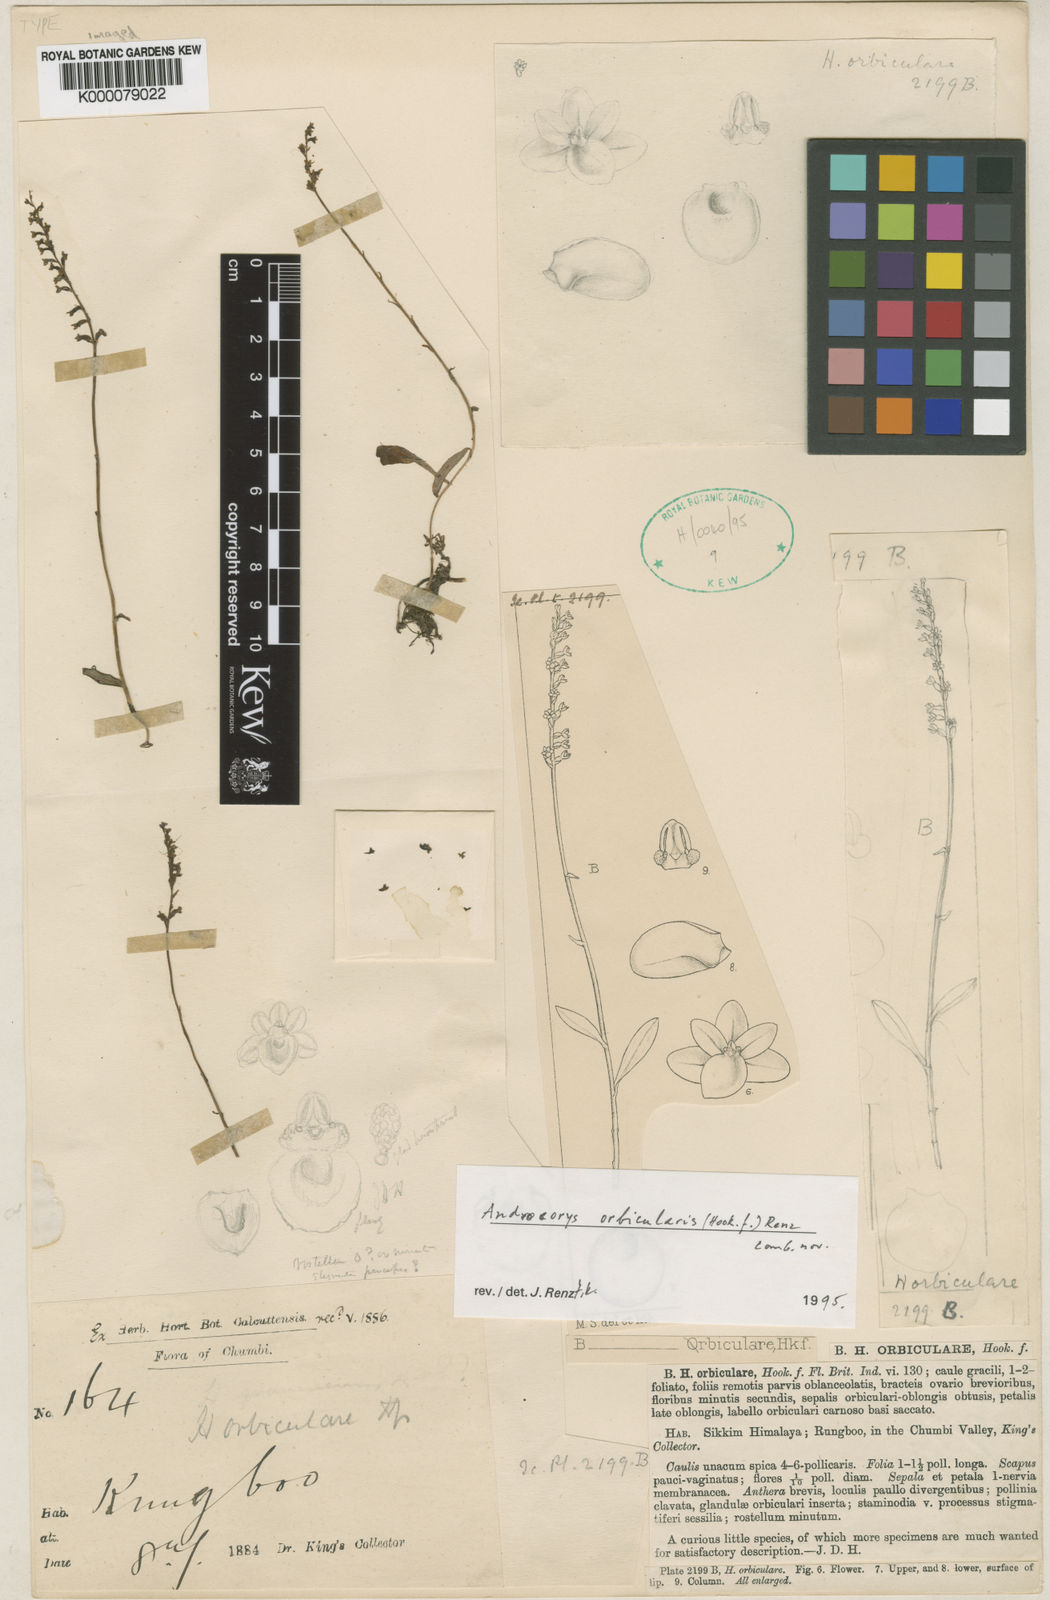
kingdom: Plantae
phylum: Tracheophyta
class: Liliopsida
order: Asparagales
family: Orchidaceae
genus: Platanthera
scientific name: Platanthera orbicularis
